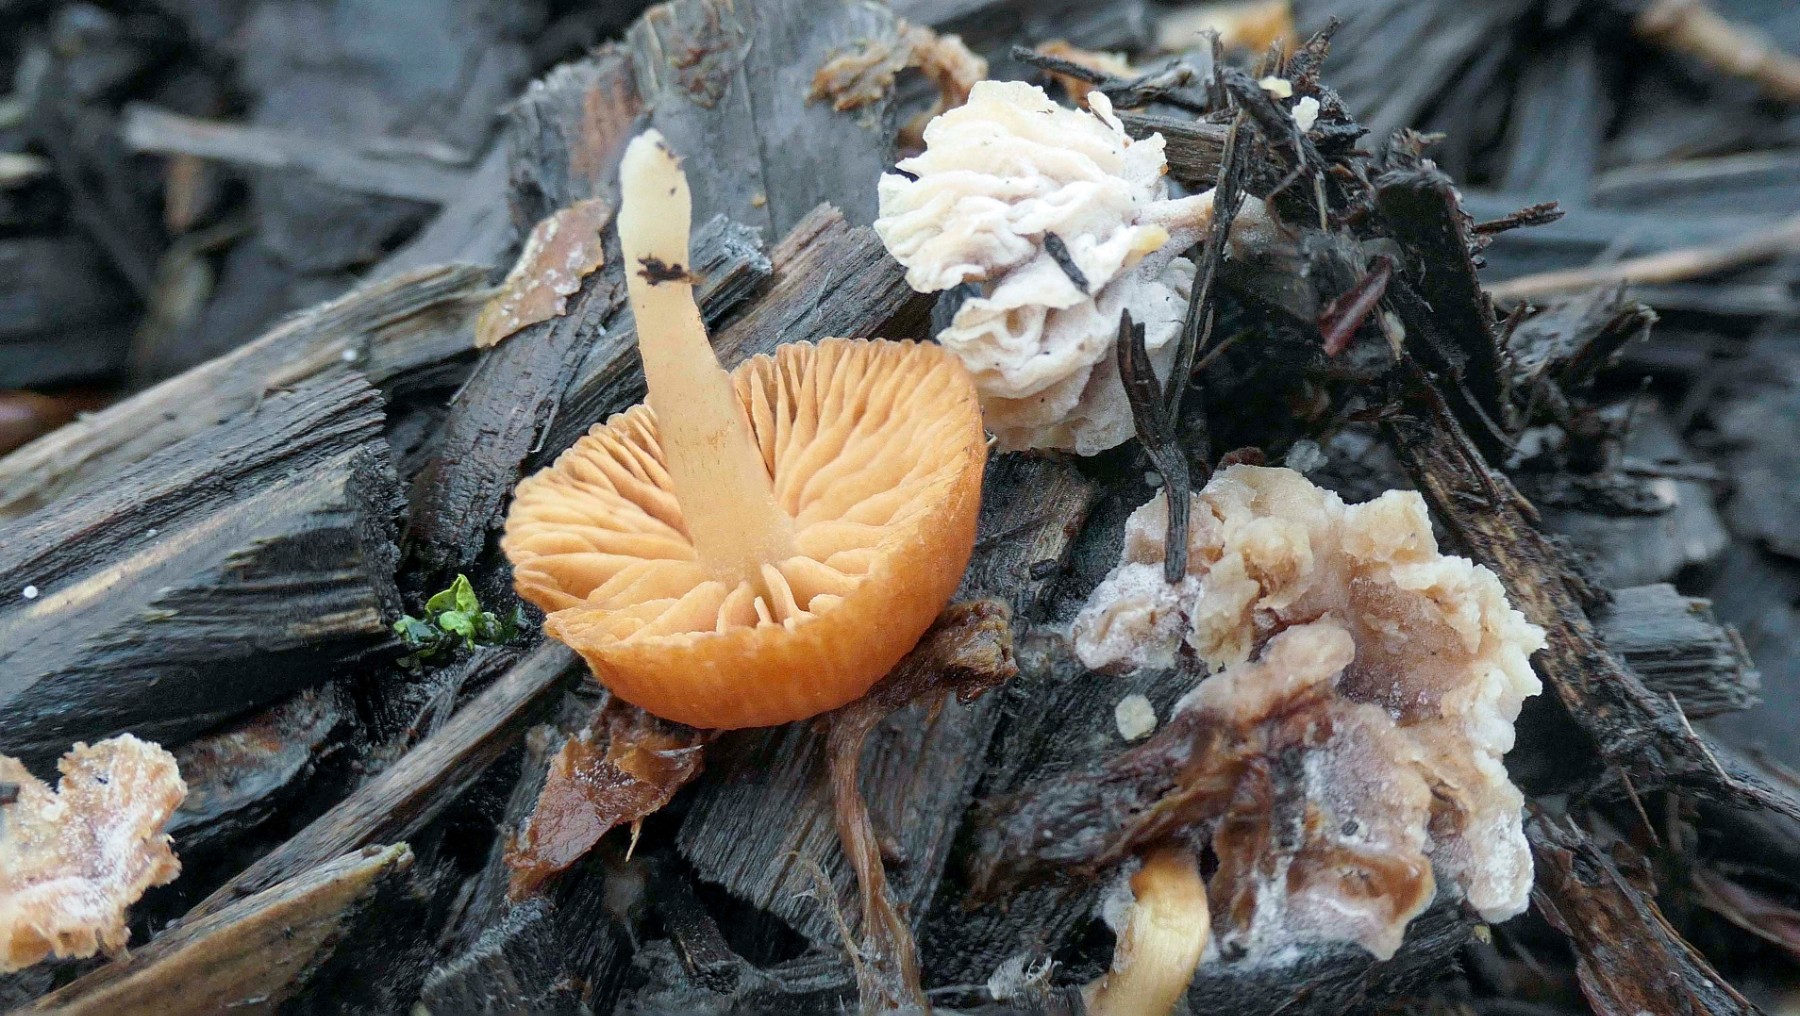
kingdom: Fungi
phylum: Ascomycota
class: Sordariomycetes
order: Hypocreales
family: Hypocreaceae
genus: Hypomyces
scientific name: Hypomyces tubariicola
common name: fnughat-snylteskorpe
